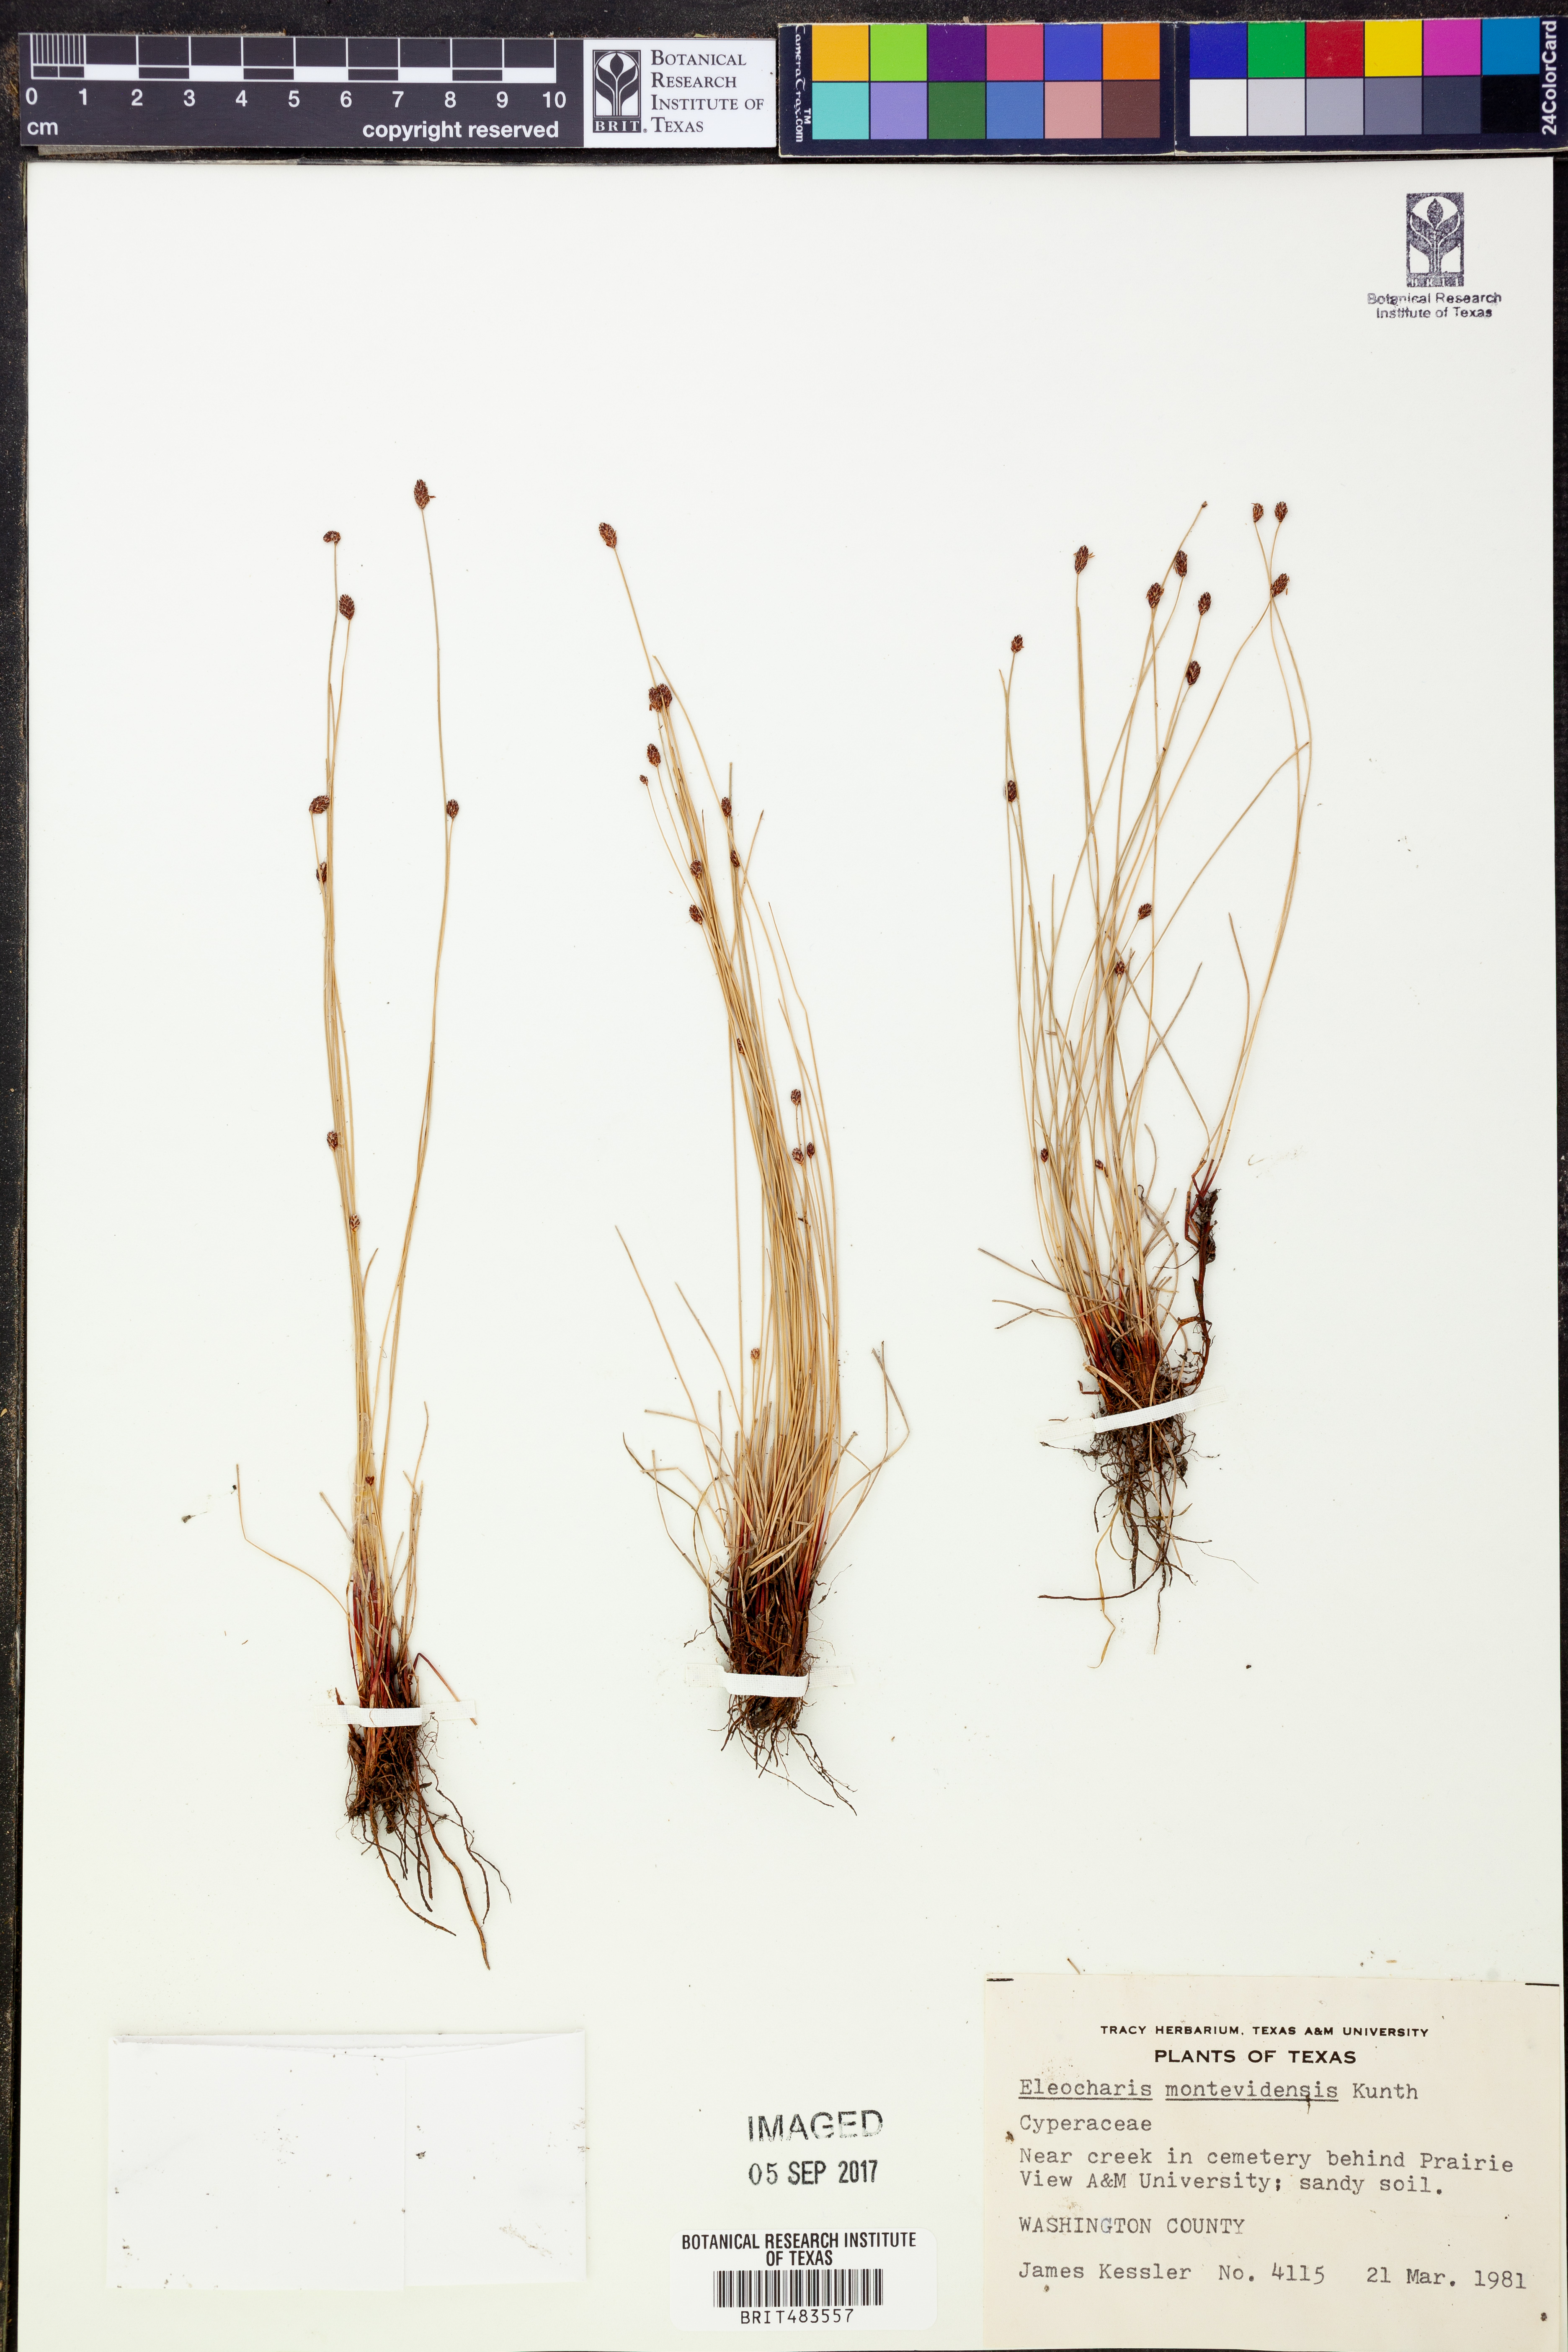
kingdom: Plantae
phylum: Tracheophyta
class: Liliopsida
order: Poales
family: Cyperaceae
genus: Eleocharis
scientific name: Eleocharis montevidensis
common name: Sand spike-rush
